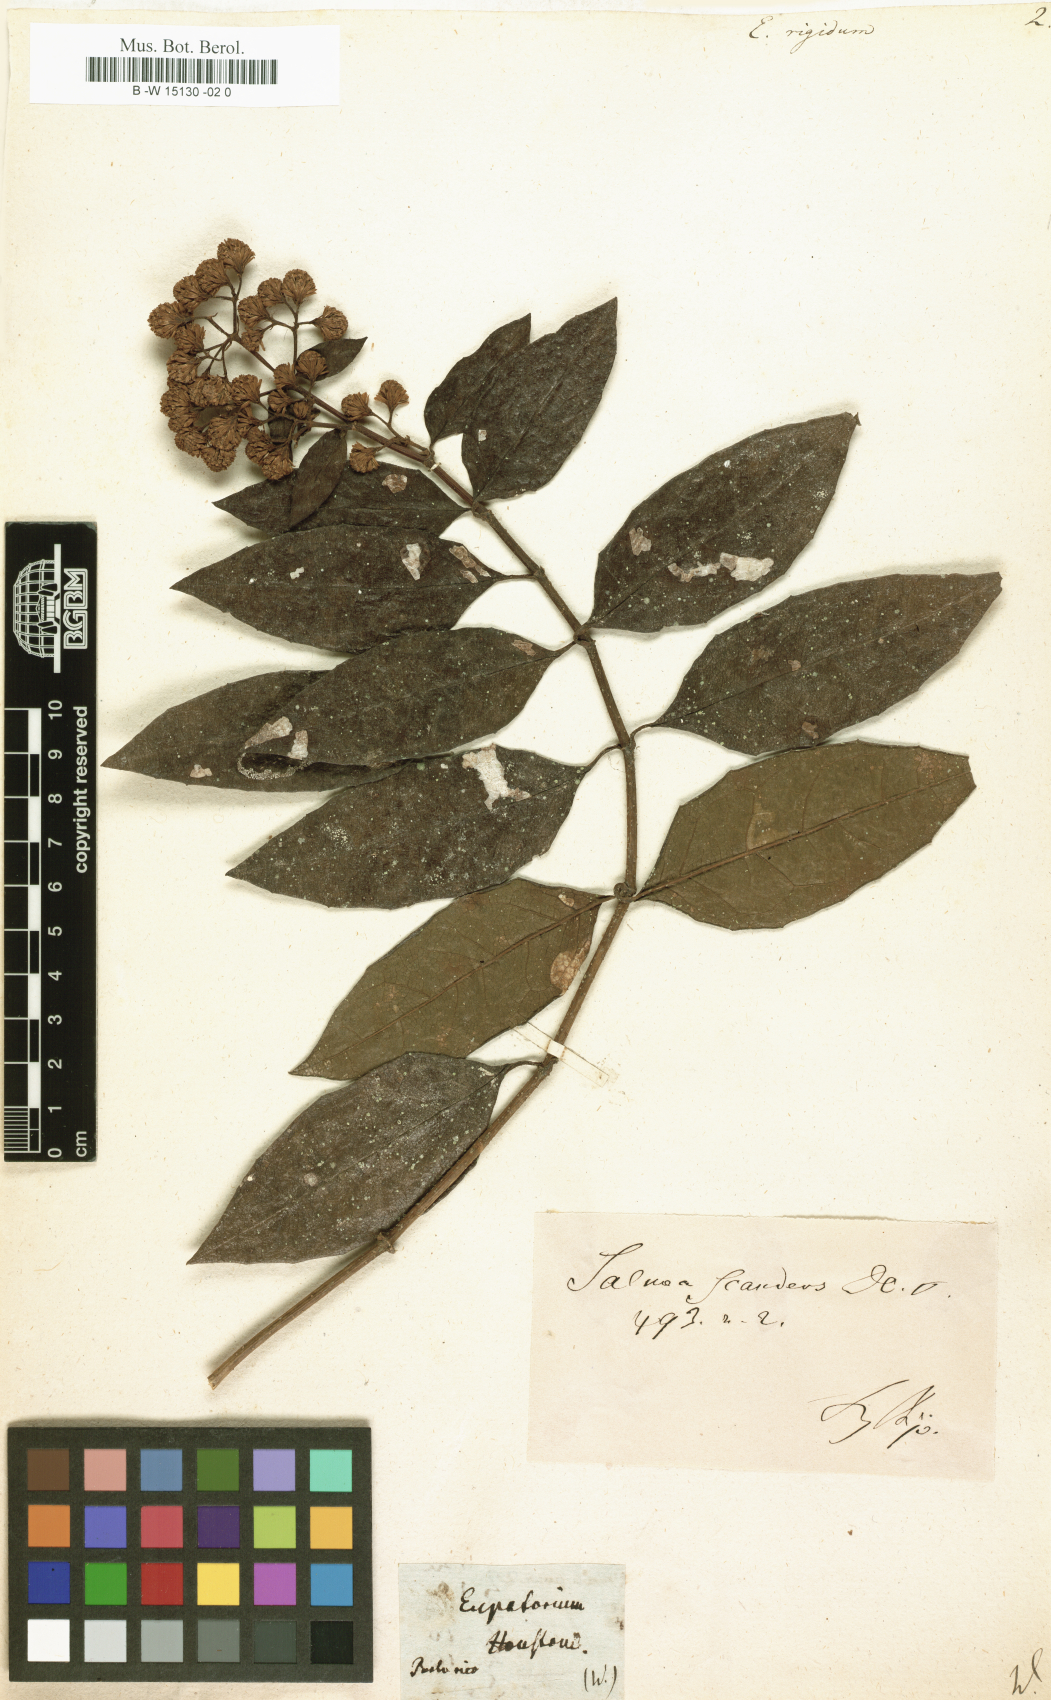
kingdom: Plantae
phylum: Tracheophyta
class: Magnoliopsida
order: Asterales
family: Asteraceae
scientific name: Asteraceae
